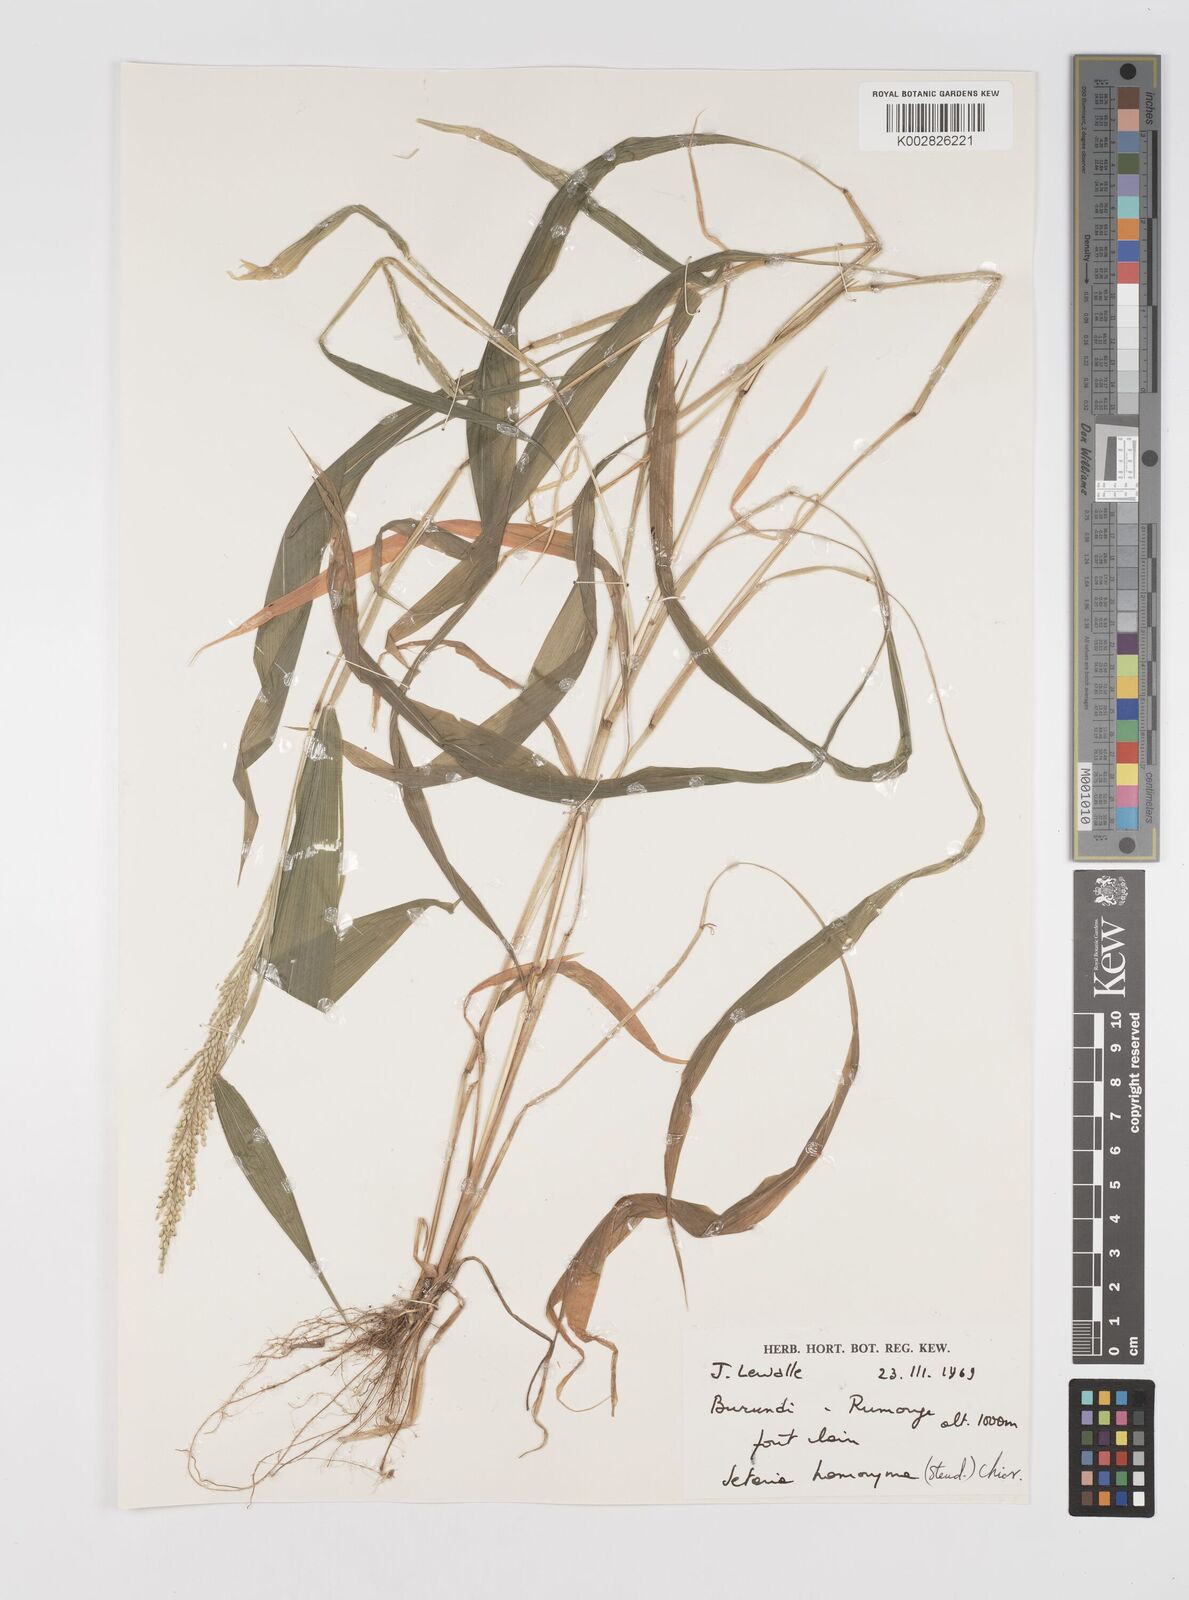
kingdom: Plantae
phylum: Tracheophyta
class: Liliopsida
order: Poales
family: Poaceae
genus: Setaria
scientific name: Setaria homonyma
